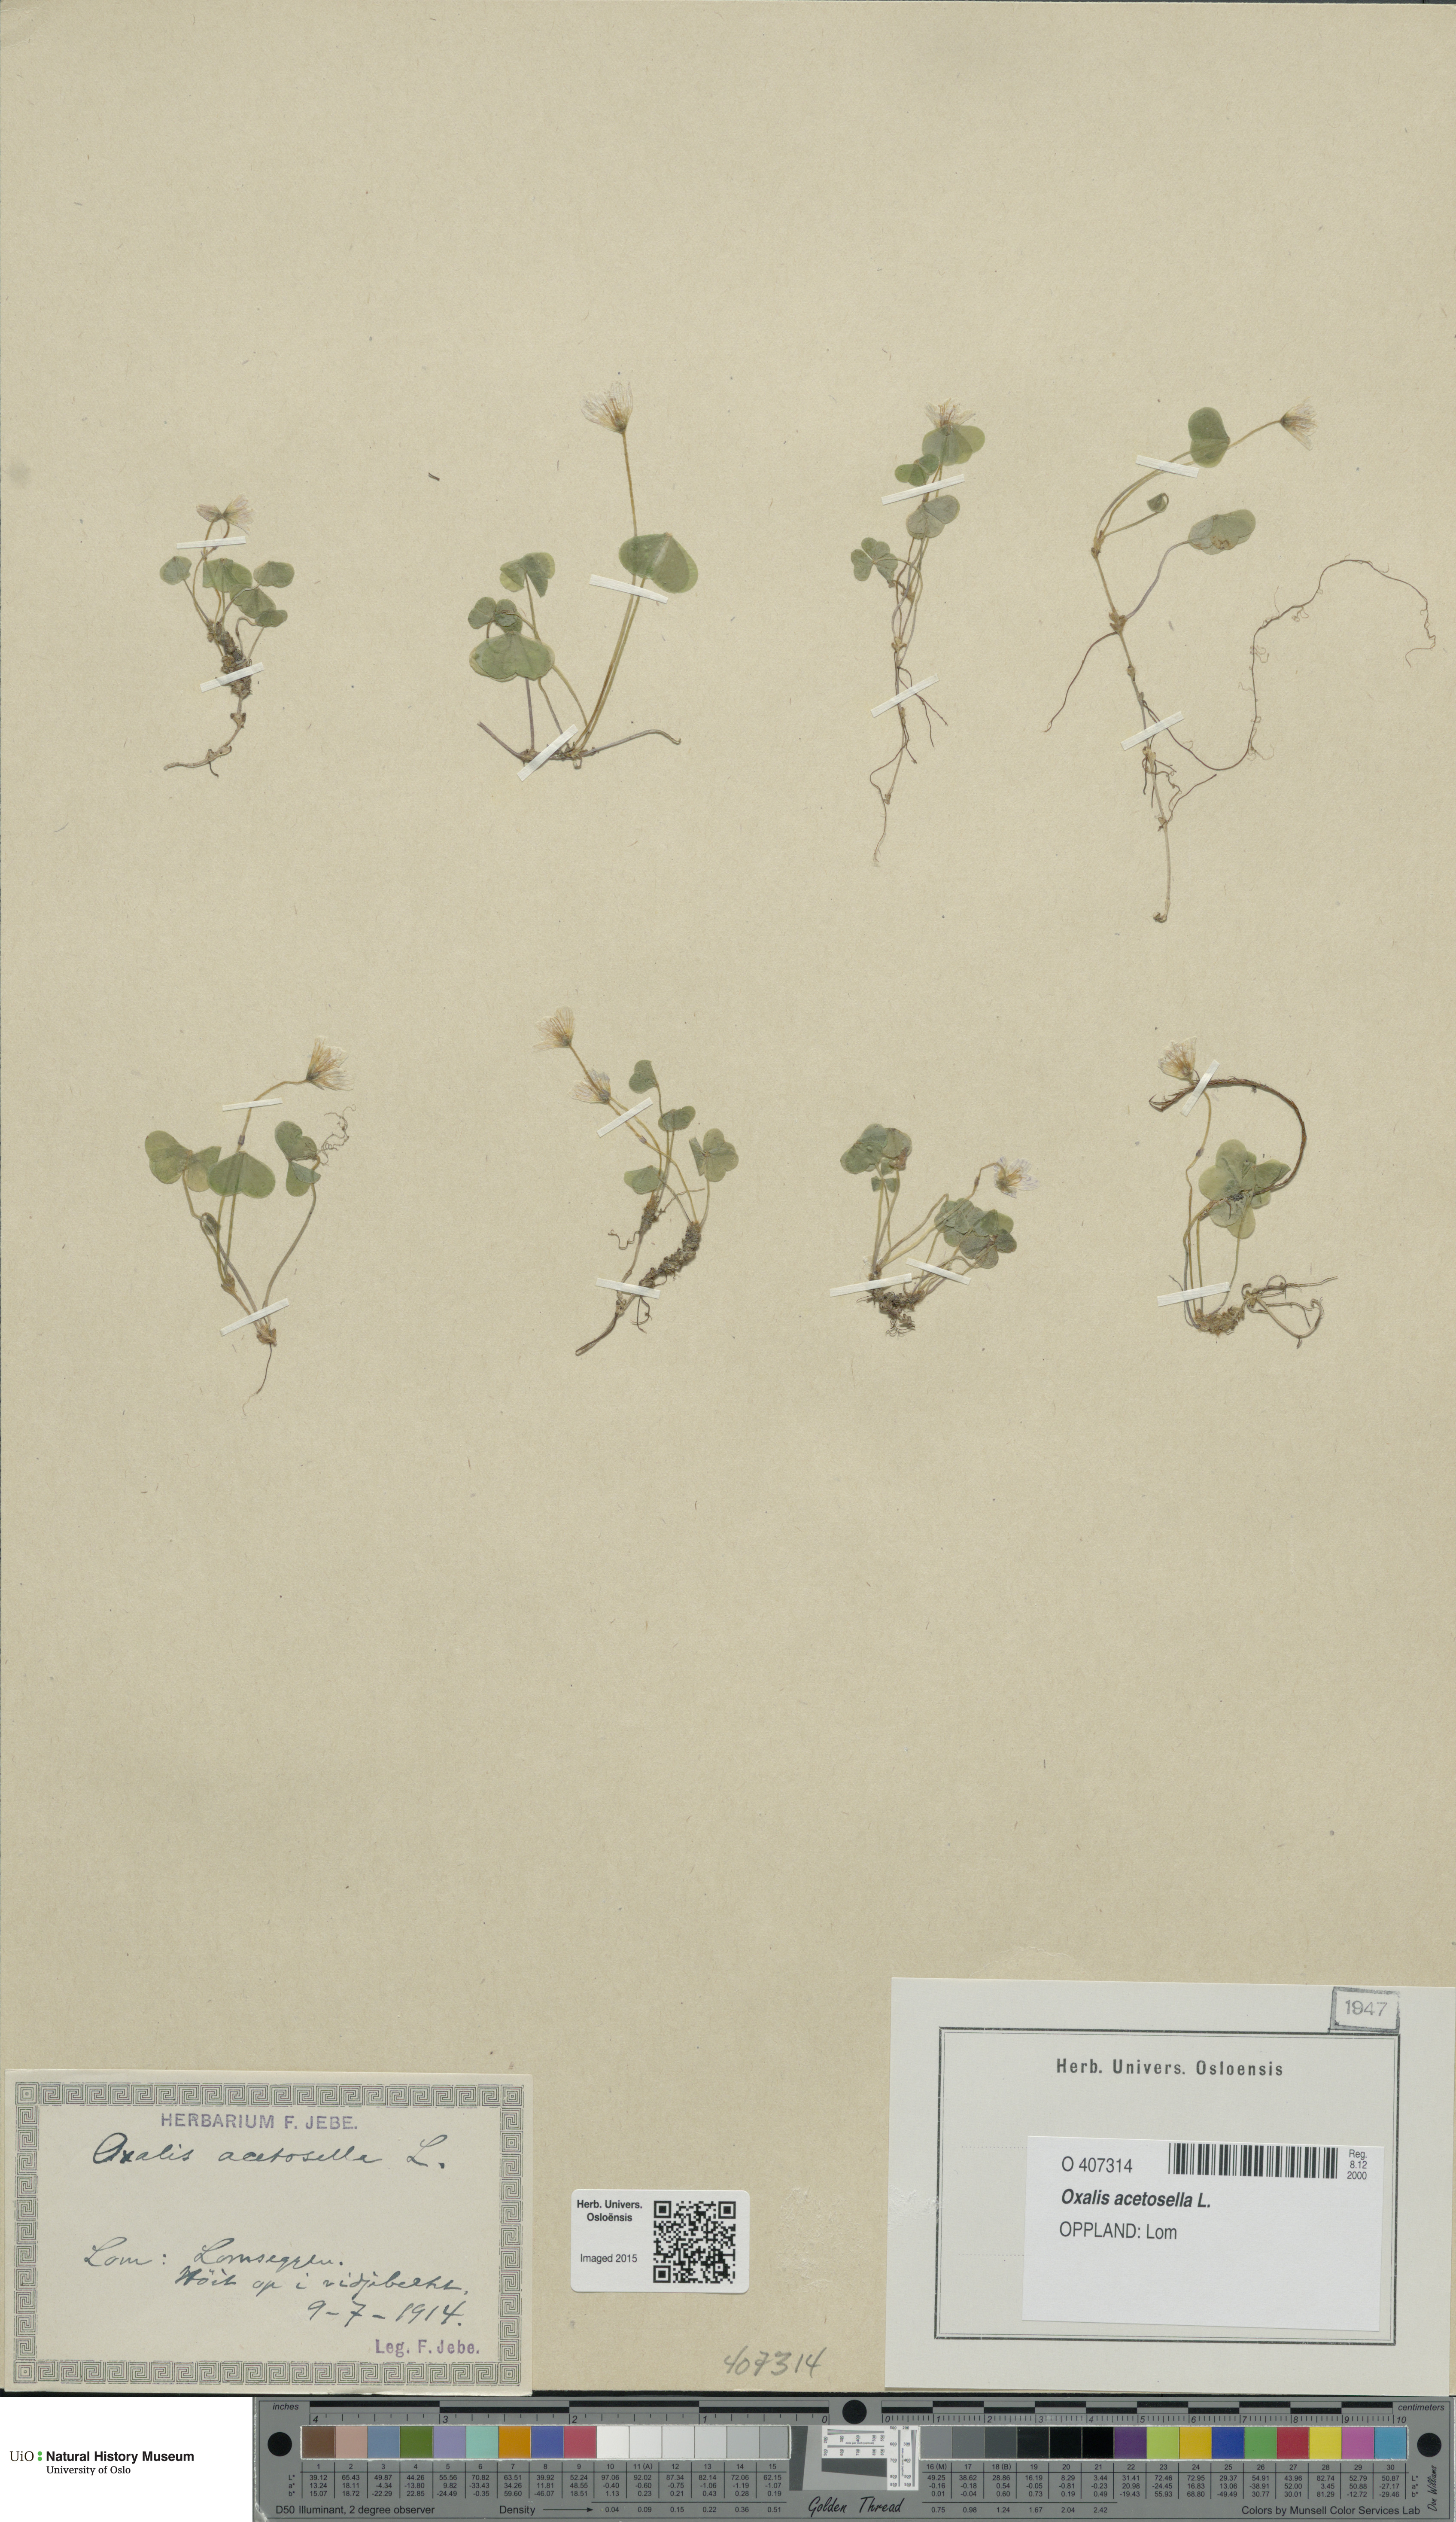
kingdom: Plantae
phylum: Tracheophyta
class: Magnoliopsida
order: Oxalidales
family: Oxalidaceae
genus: Oxalis
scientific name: Oxalis acetosella
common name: Wood-sorrel
